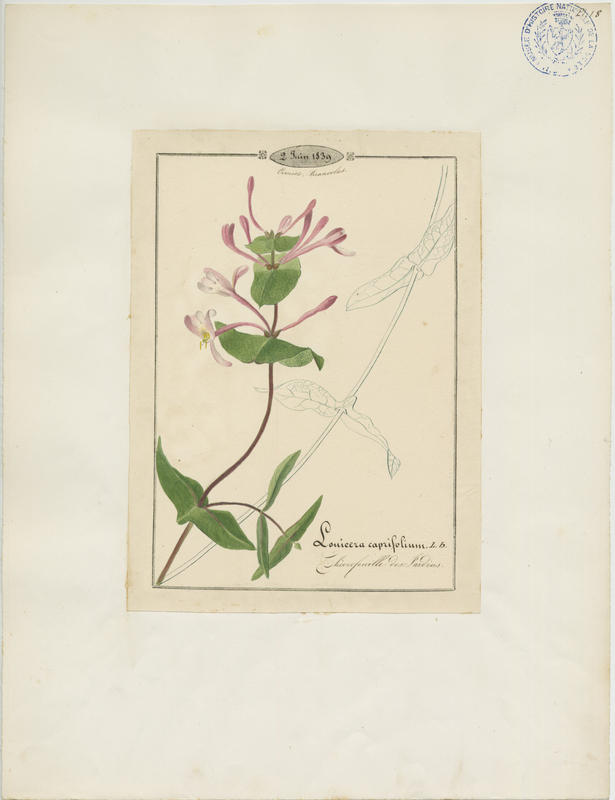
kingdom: Plantae
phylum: Tracheophyta
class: Magnoliopsida
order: Dipsacales
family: Caprifoliaceae
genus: Lonicera
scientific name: Lonicera caprifolium
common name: Perfoliate honeysuckle
